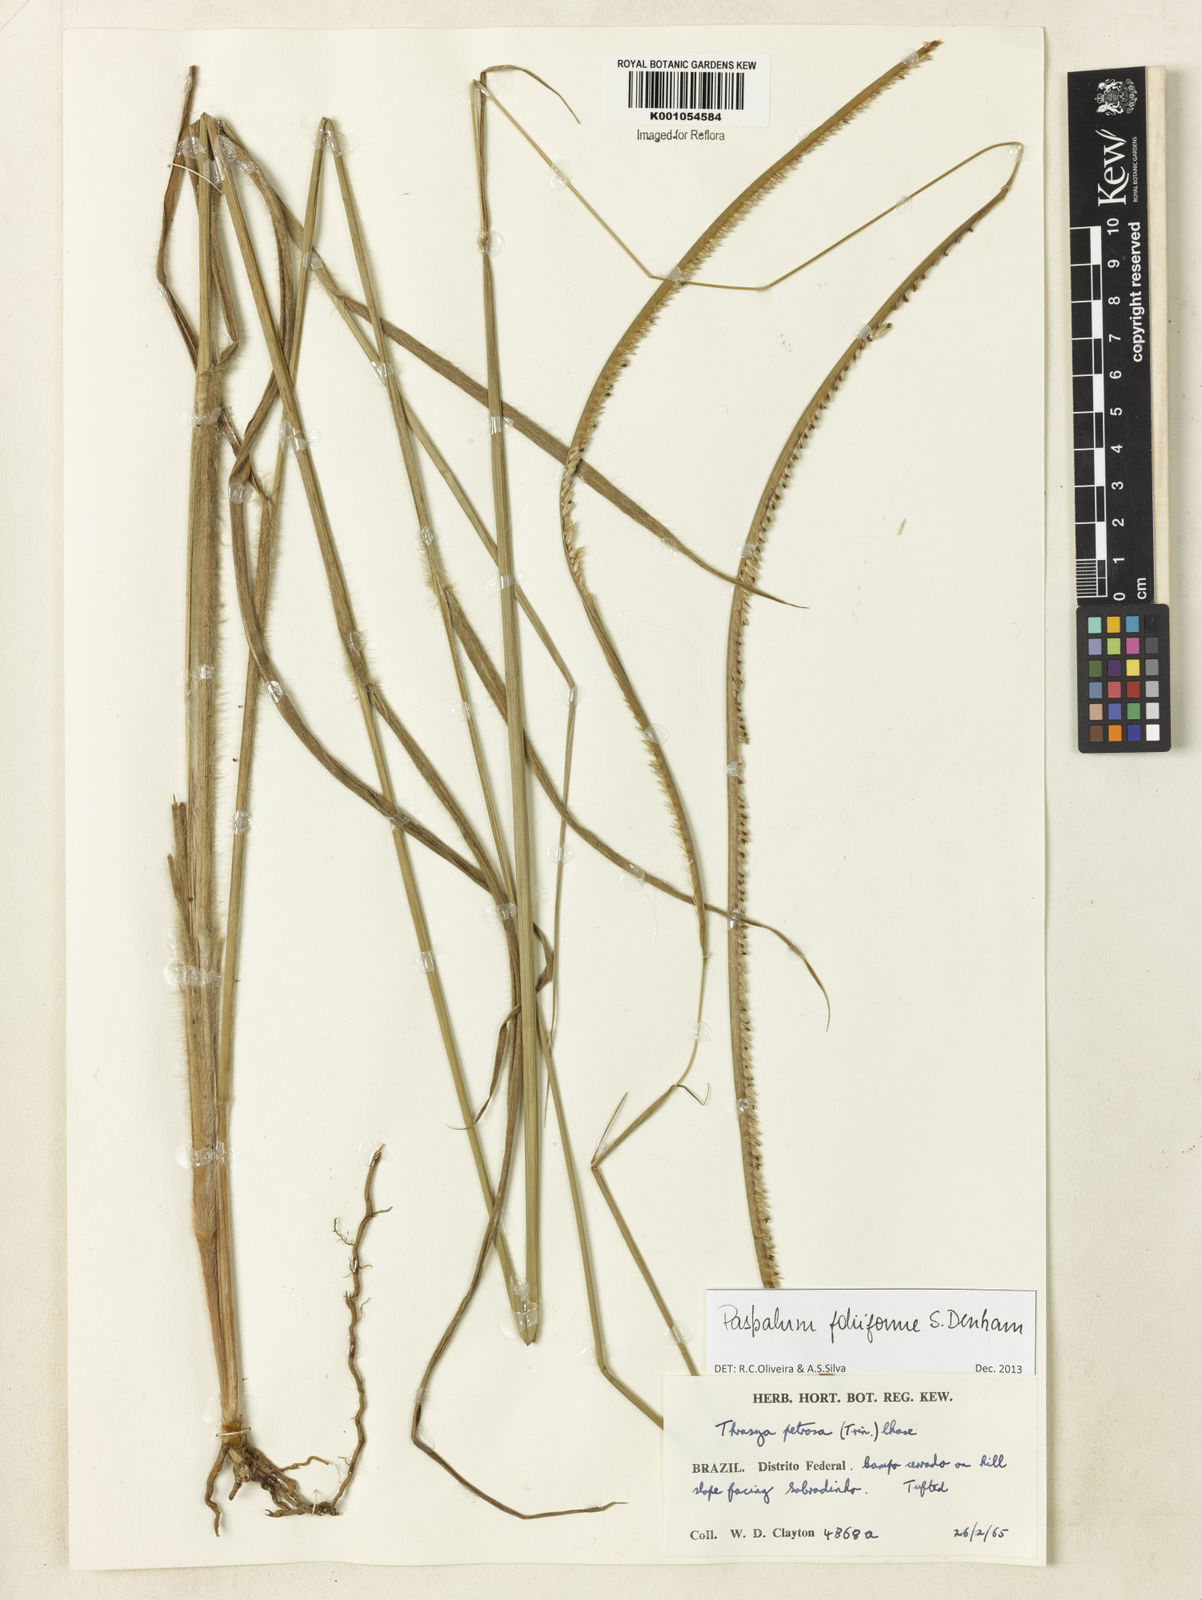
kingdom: Plantae
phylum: Tracheophyta
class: Liliopsida
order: Poales
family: Poaceae
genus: Paspalum
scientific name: Paspalum foliiforme
